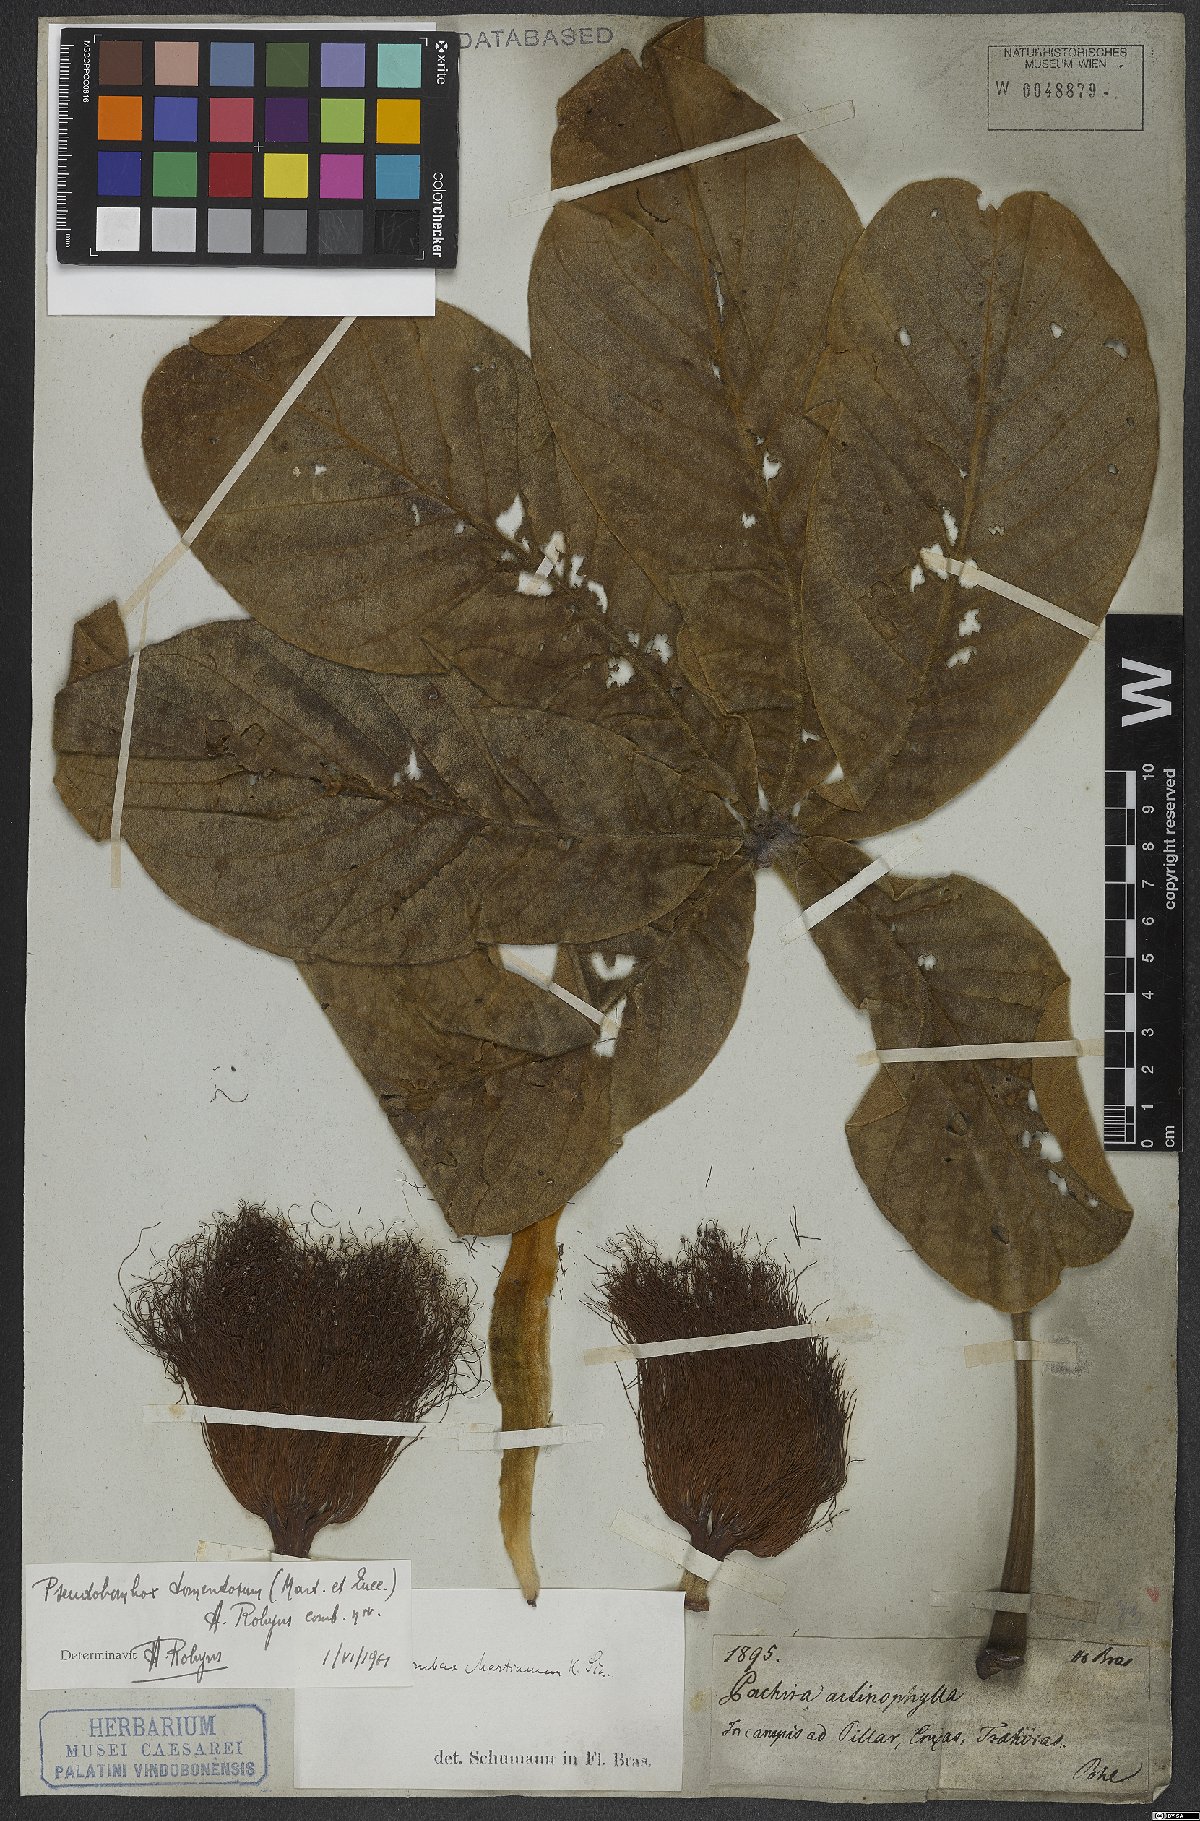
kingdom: Plantae
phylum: Tracheophyta
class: Magnoliopsida
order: Malvales
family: Malvaceae
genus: Pseudobombax
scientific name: Pseudobombax tomentosum
